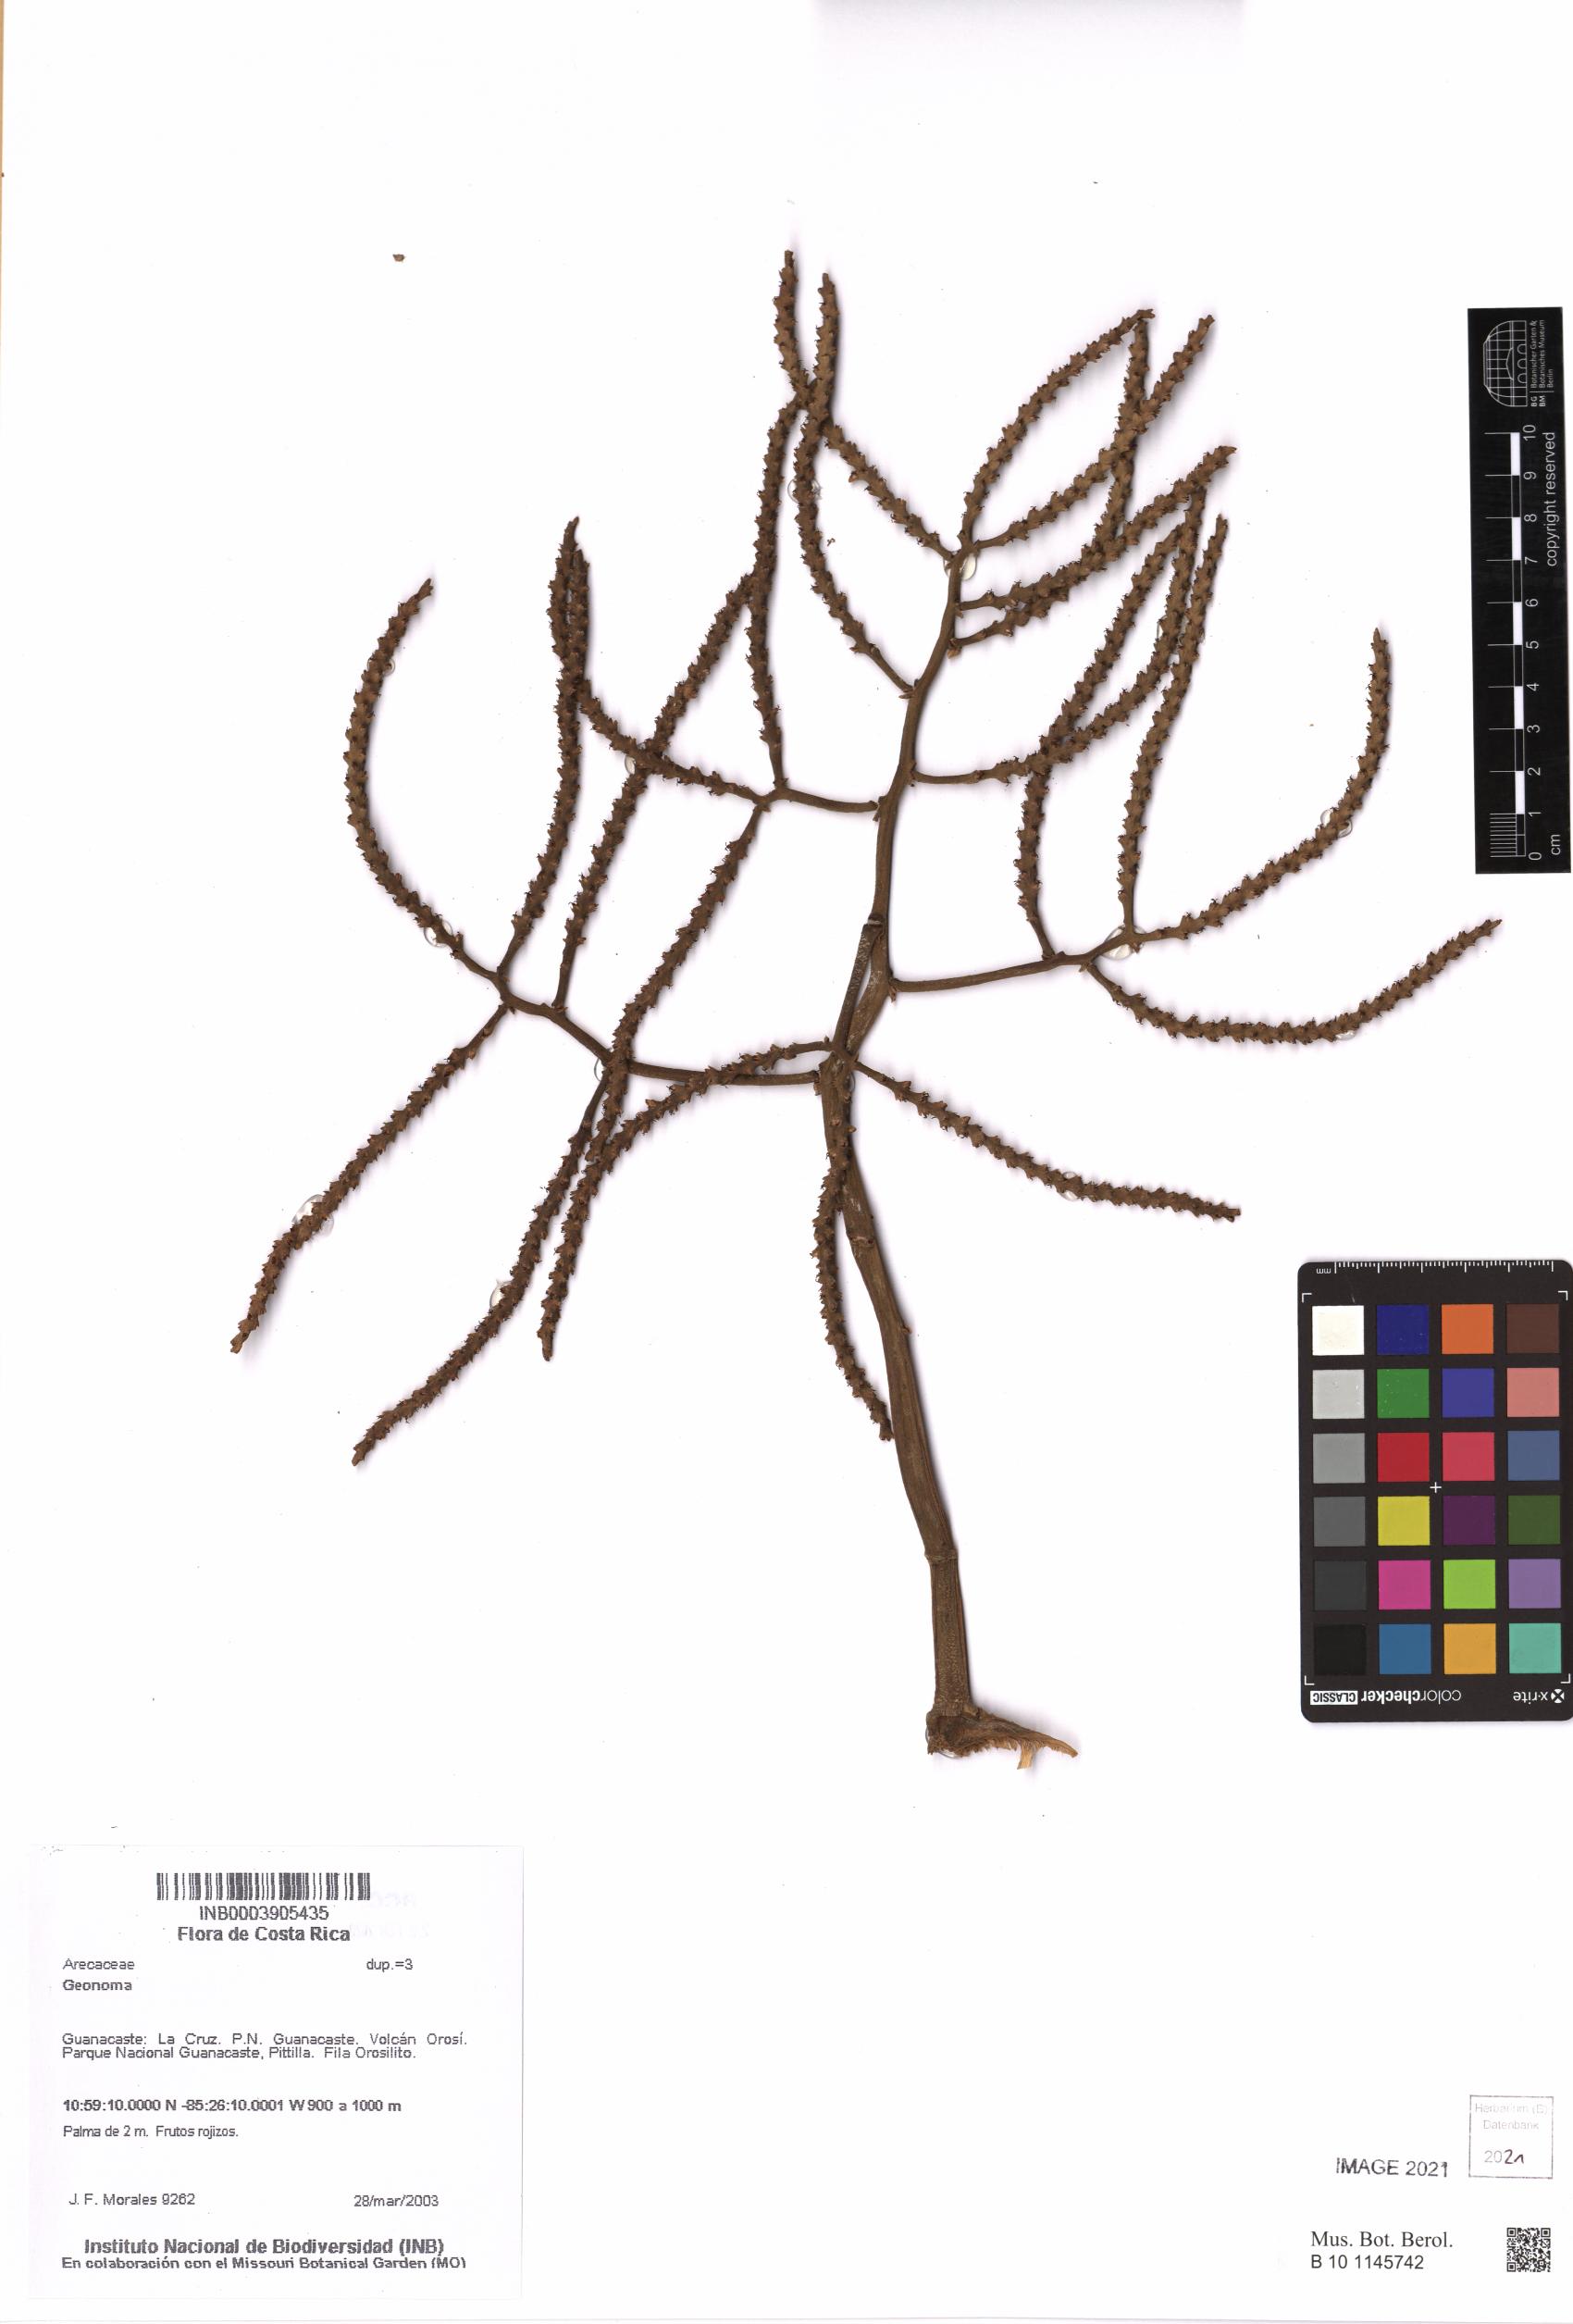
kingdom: Plantae
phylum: Tracheophyta
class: Liliopsida
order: Arecales
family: Arecaceae
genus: Geonoma
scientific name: Geonoma
